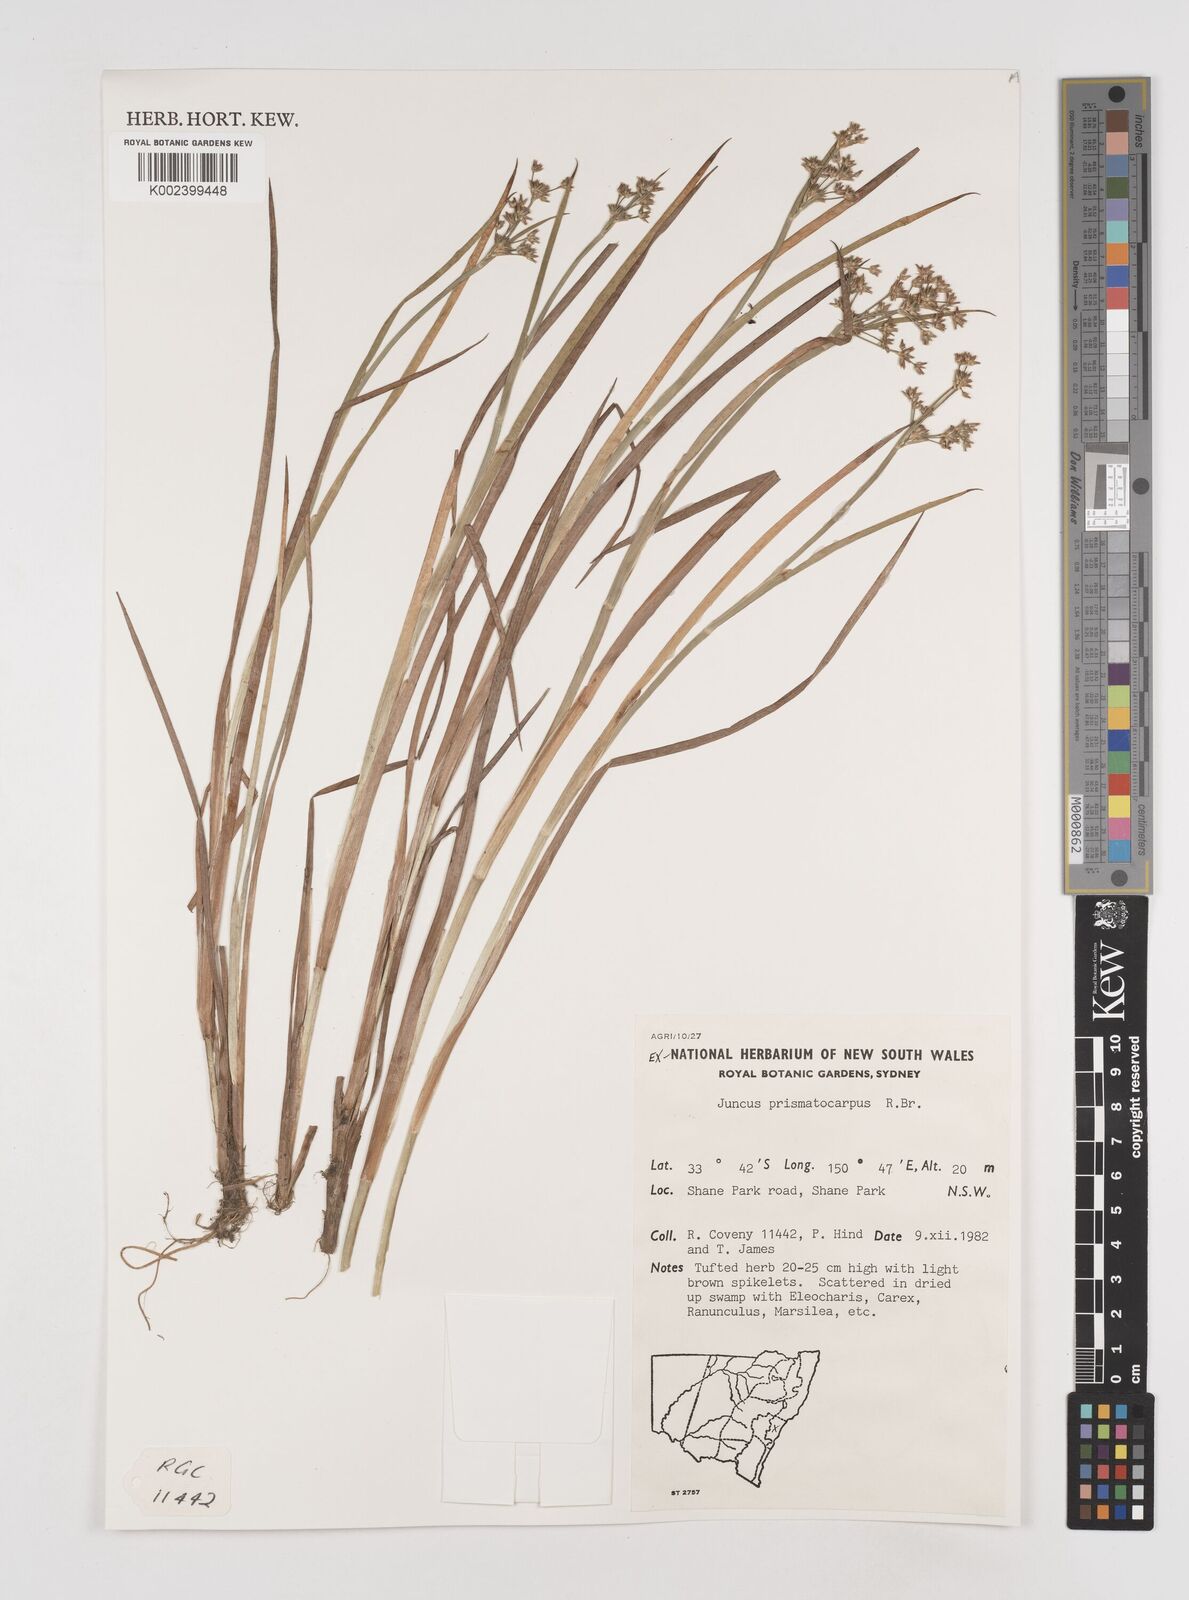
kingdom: Plantae
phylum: Tracheophyta
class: Liliopsida
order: Poales
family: Juncaceae
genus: Juncus
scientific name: Juncus prismatocarpus
